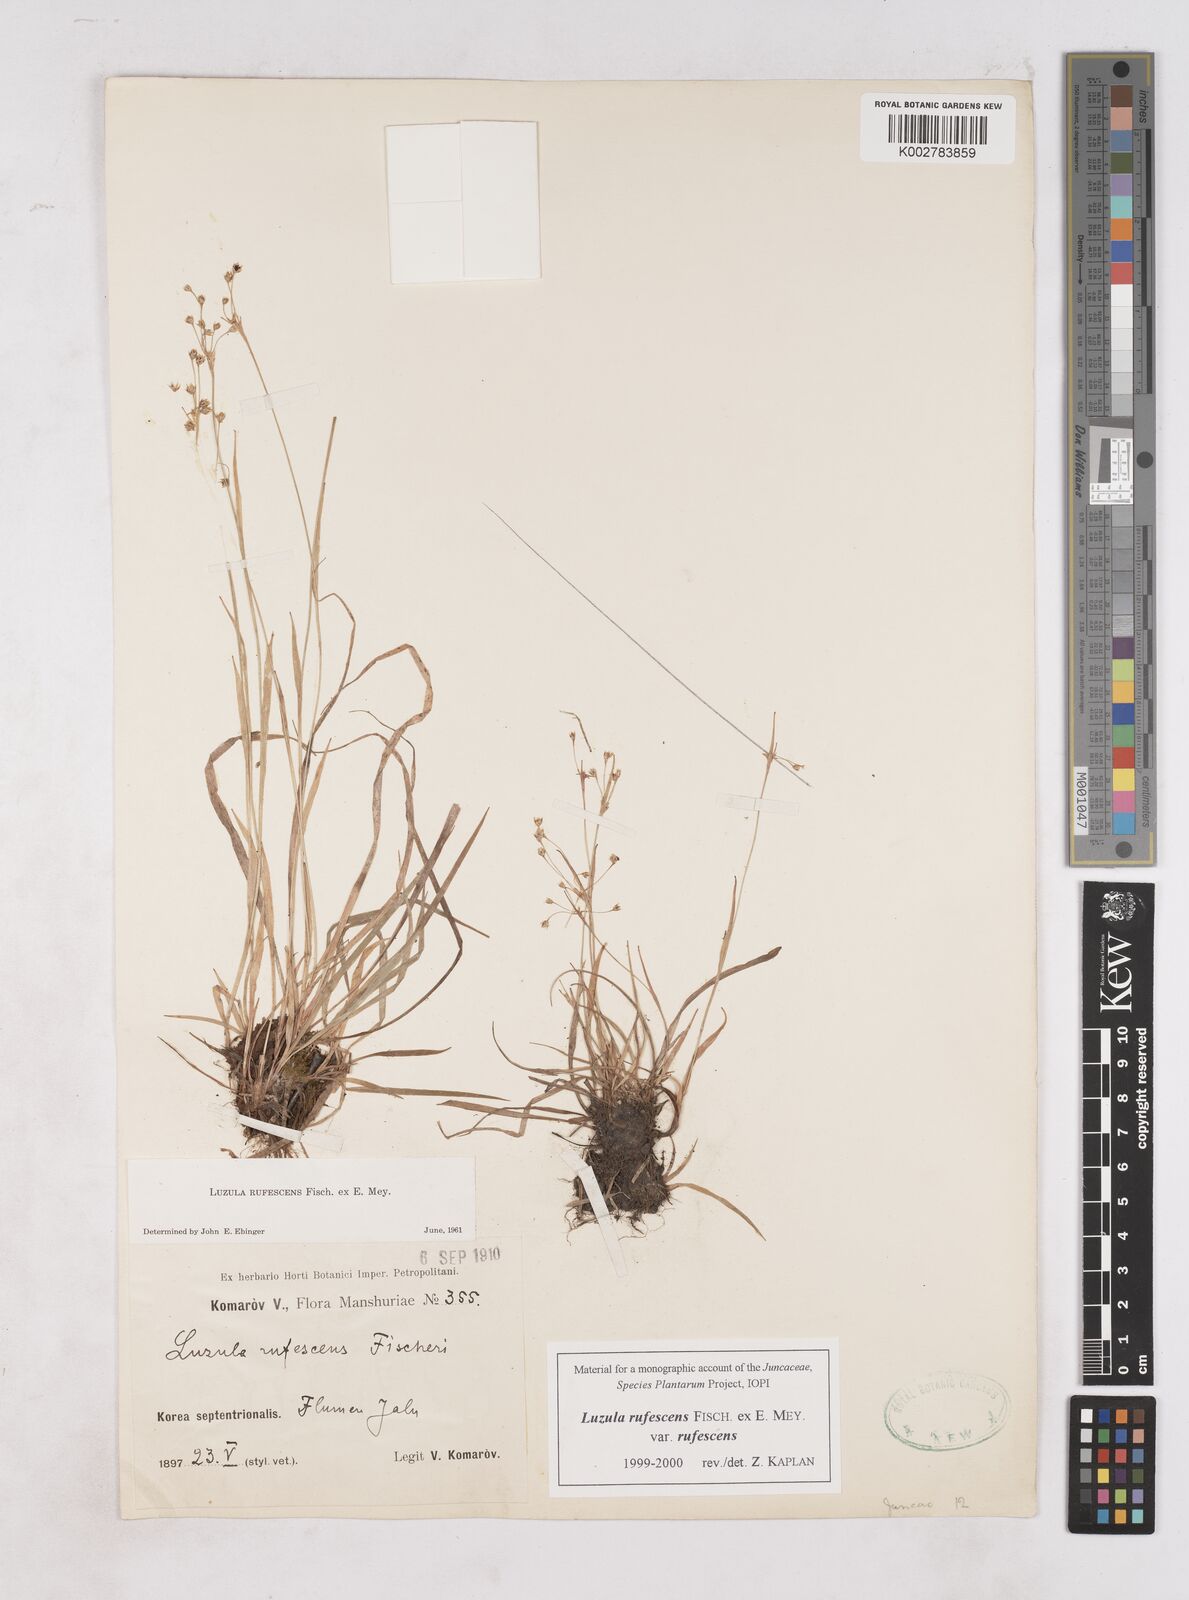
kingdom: Plantae
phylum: Tracheophyta
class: Liliopsida
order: Poales
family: Juncaceae
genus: Luzula
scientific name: Luzula rufescens
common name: Reddish woodrush
